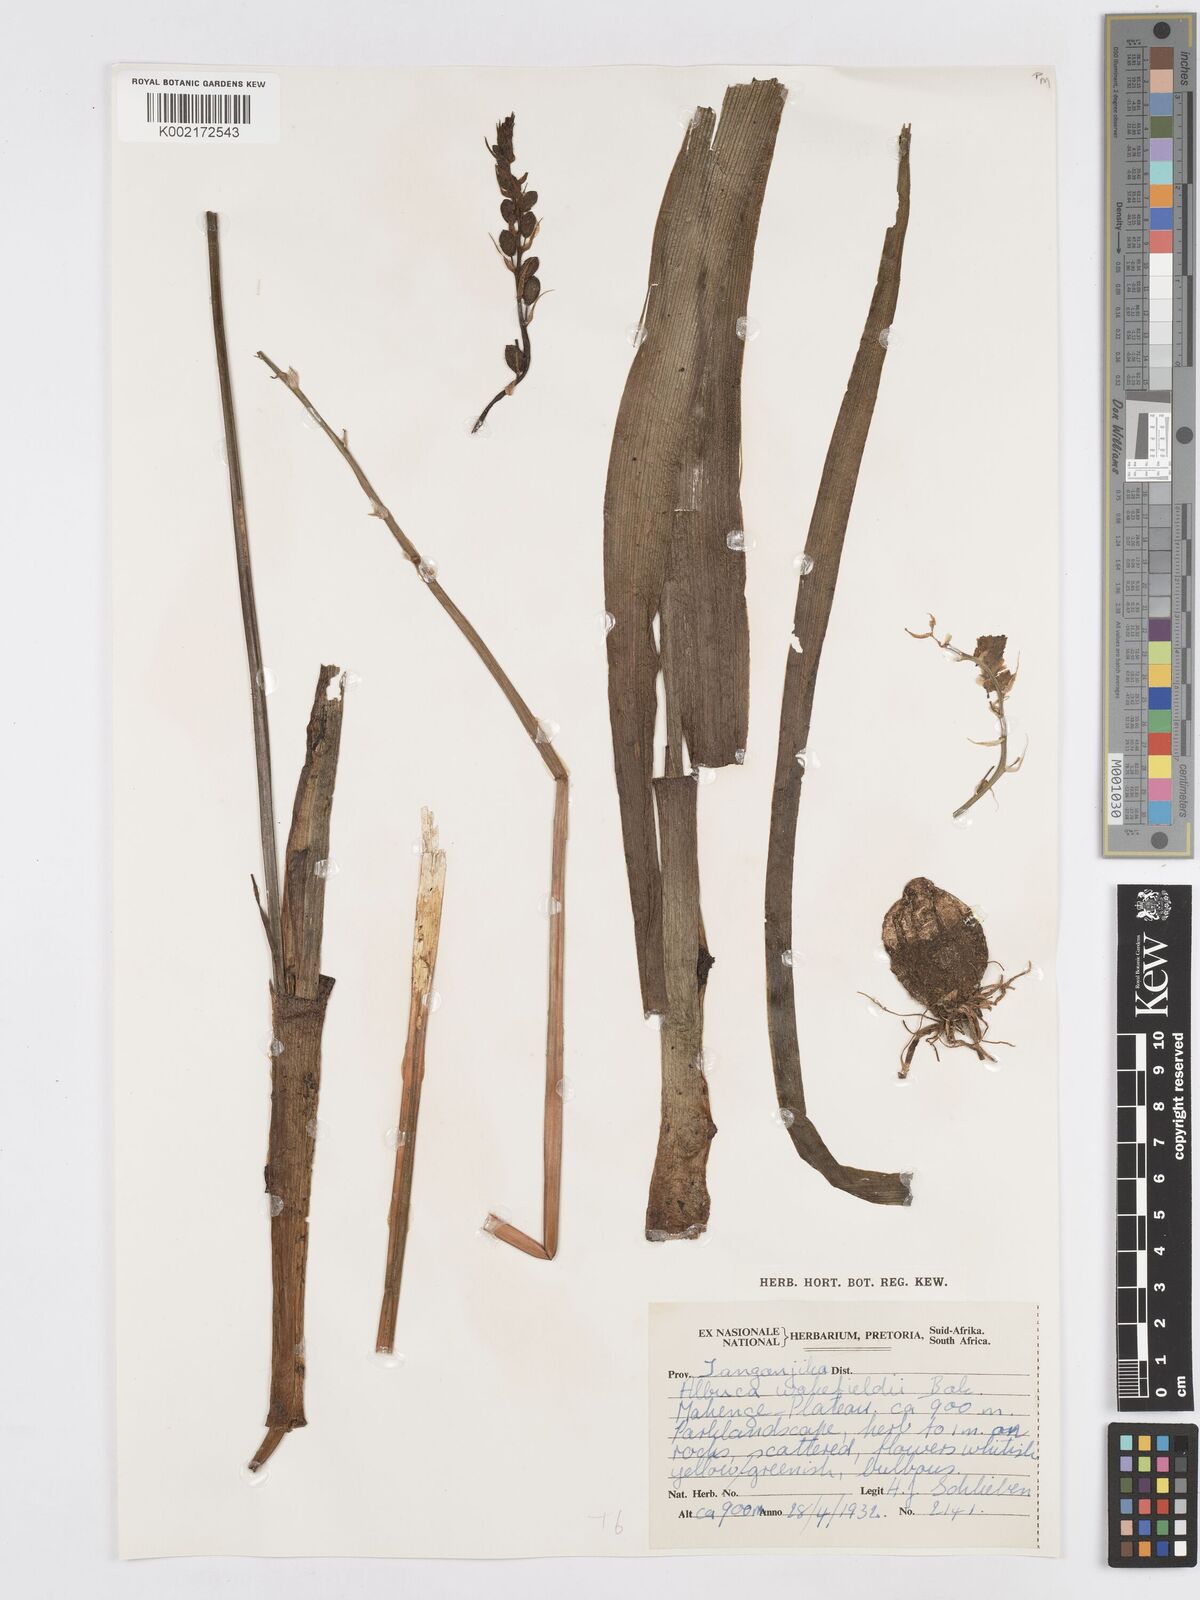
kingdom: Plantae
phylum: Tracheophyta
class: Liliopsida
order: Asparagales
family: Asparagaceae
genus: Albuca
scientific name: Albuca abyssinica
